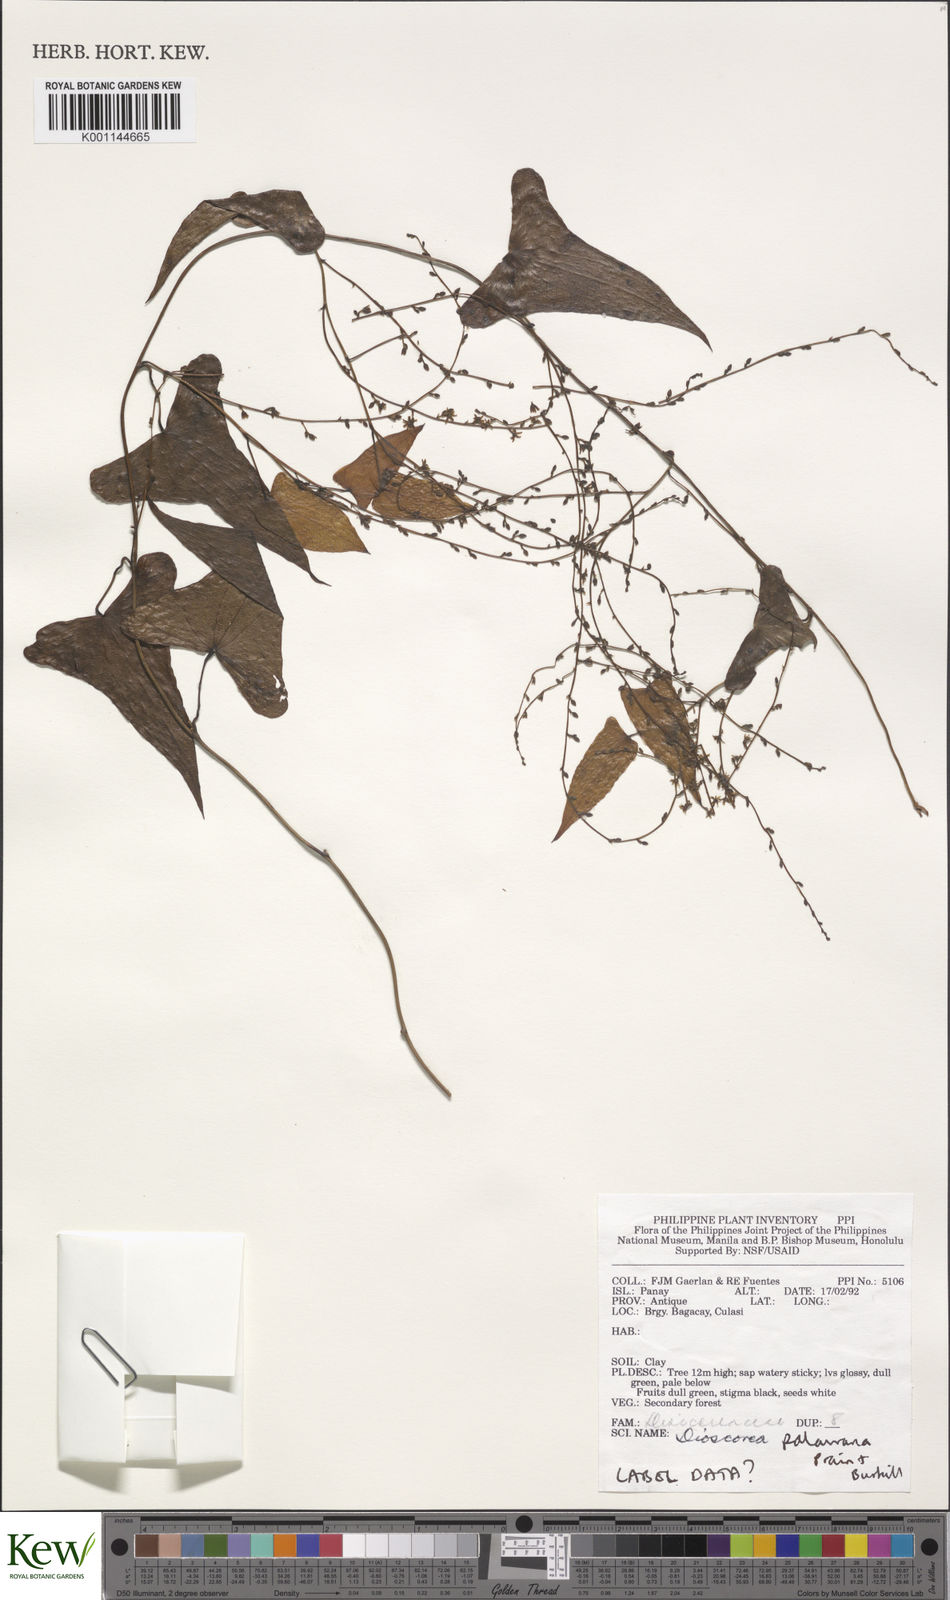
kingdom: Plantae
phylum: Tracheophyta
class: Liliopsida
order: Dioscoreales
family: Dioscoreaceae
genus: Dioscorea
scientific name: Dioscorea palawana
